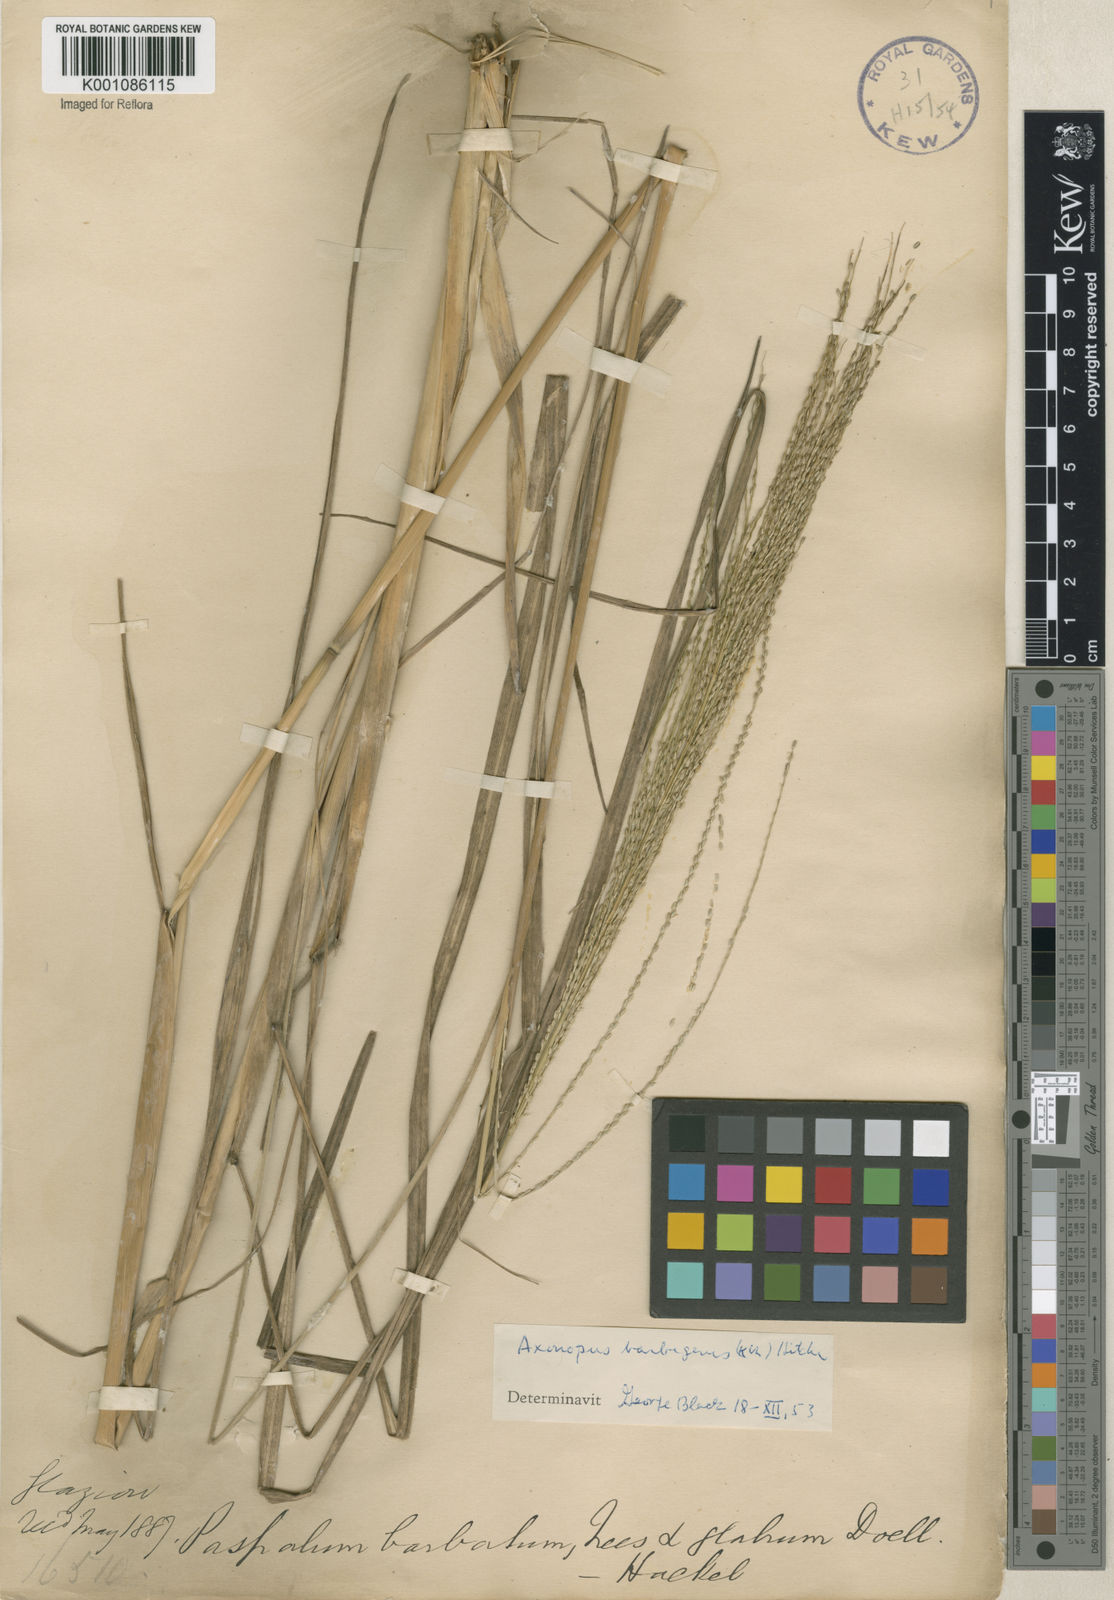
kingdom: Plantae
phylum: Tracheophyta
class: Liliopsida
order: Poales
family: Poaceae
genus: Axonopus
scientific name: Axonopus siccus
